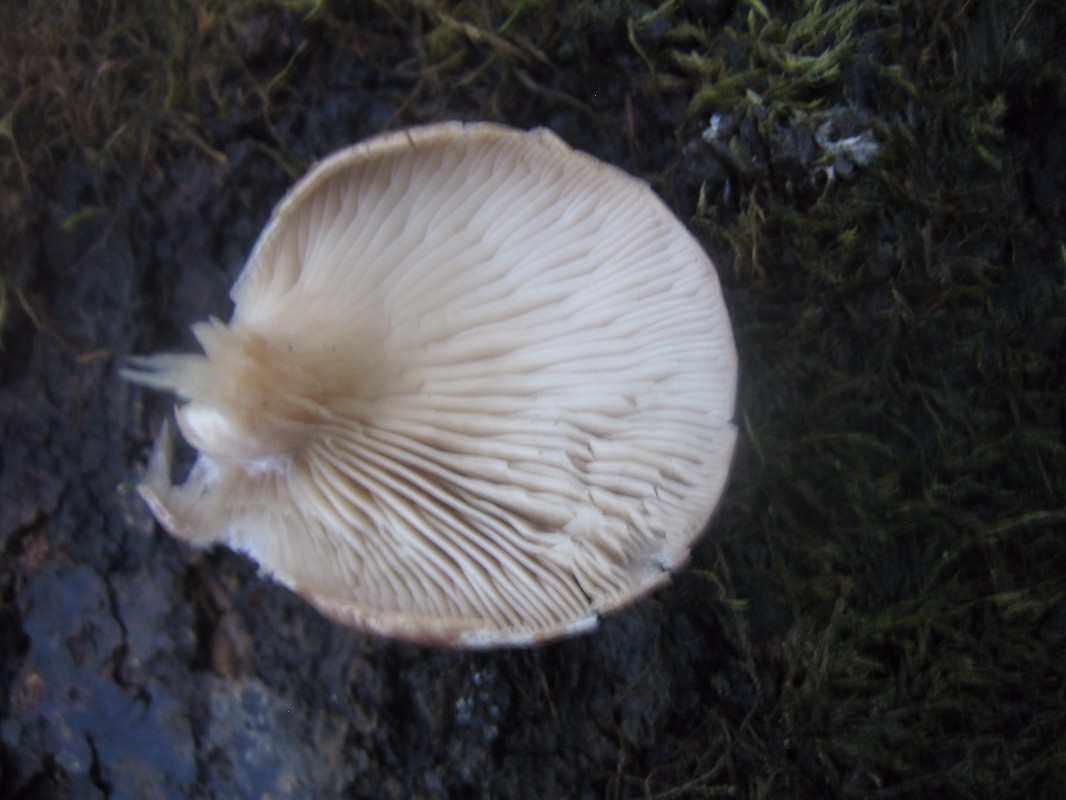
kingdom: Fungi
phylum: Basidiomycota
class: Agaricomycetes
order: Agaricales
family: Pleurotaceae
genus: Pleurotus
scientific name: Pleurotus ostreatus
